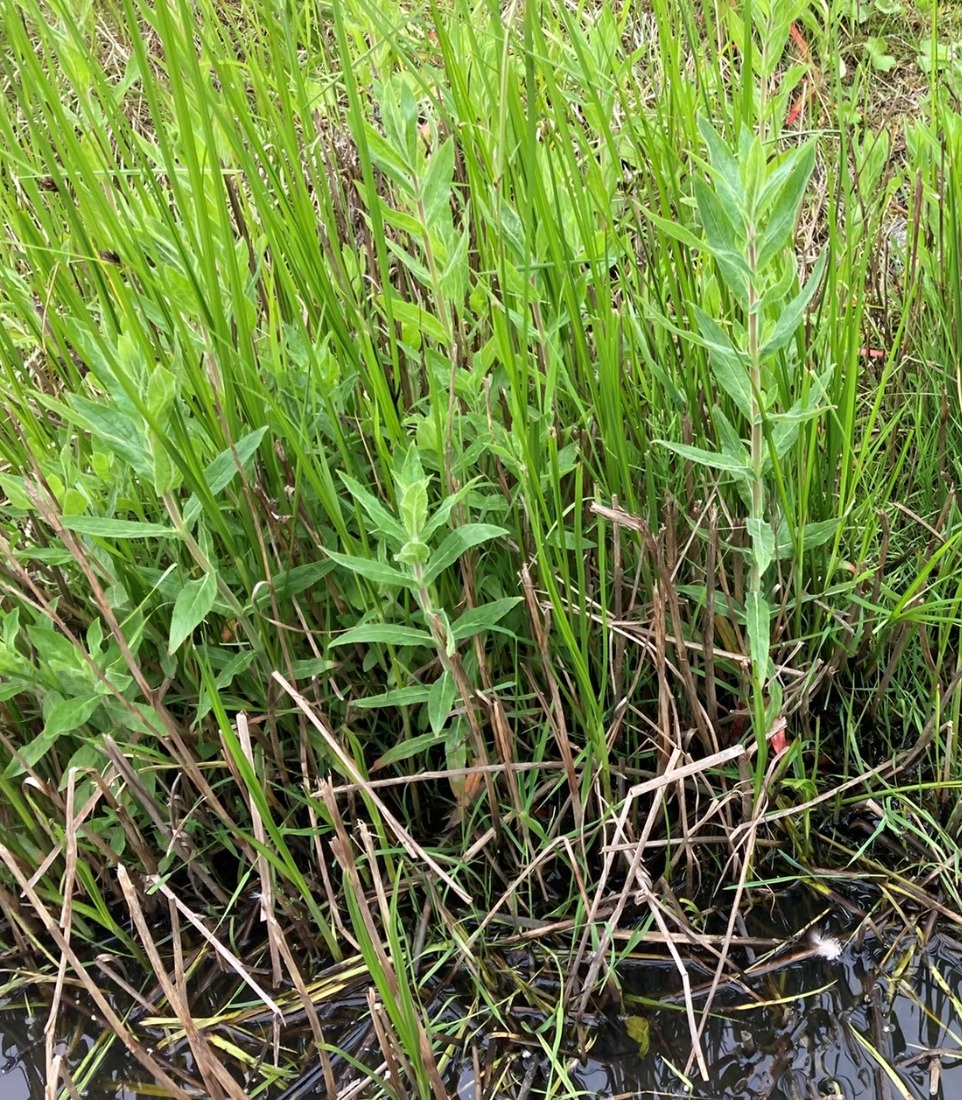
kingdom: Plantae
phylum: Tracheophyta
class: Magnoliopsida
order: Myrtales
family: Onagraceae
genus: Epilobium
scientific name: Epilobium hirsutum
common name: Lådden dueurt
